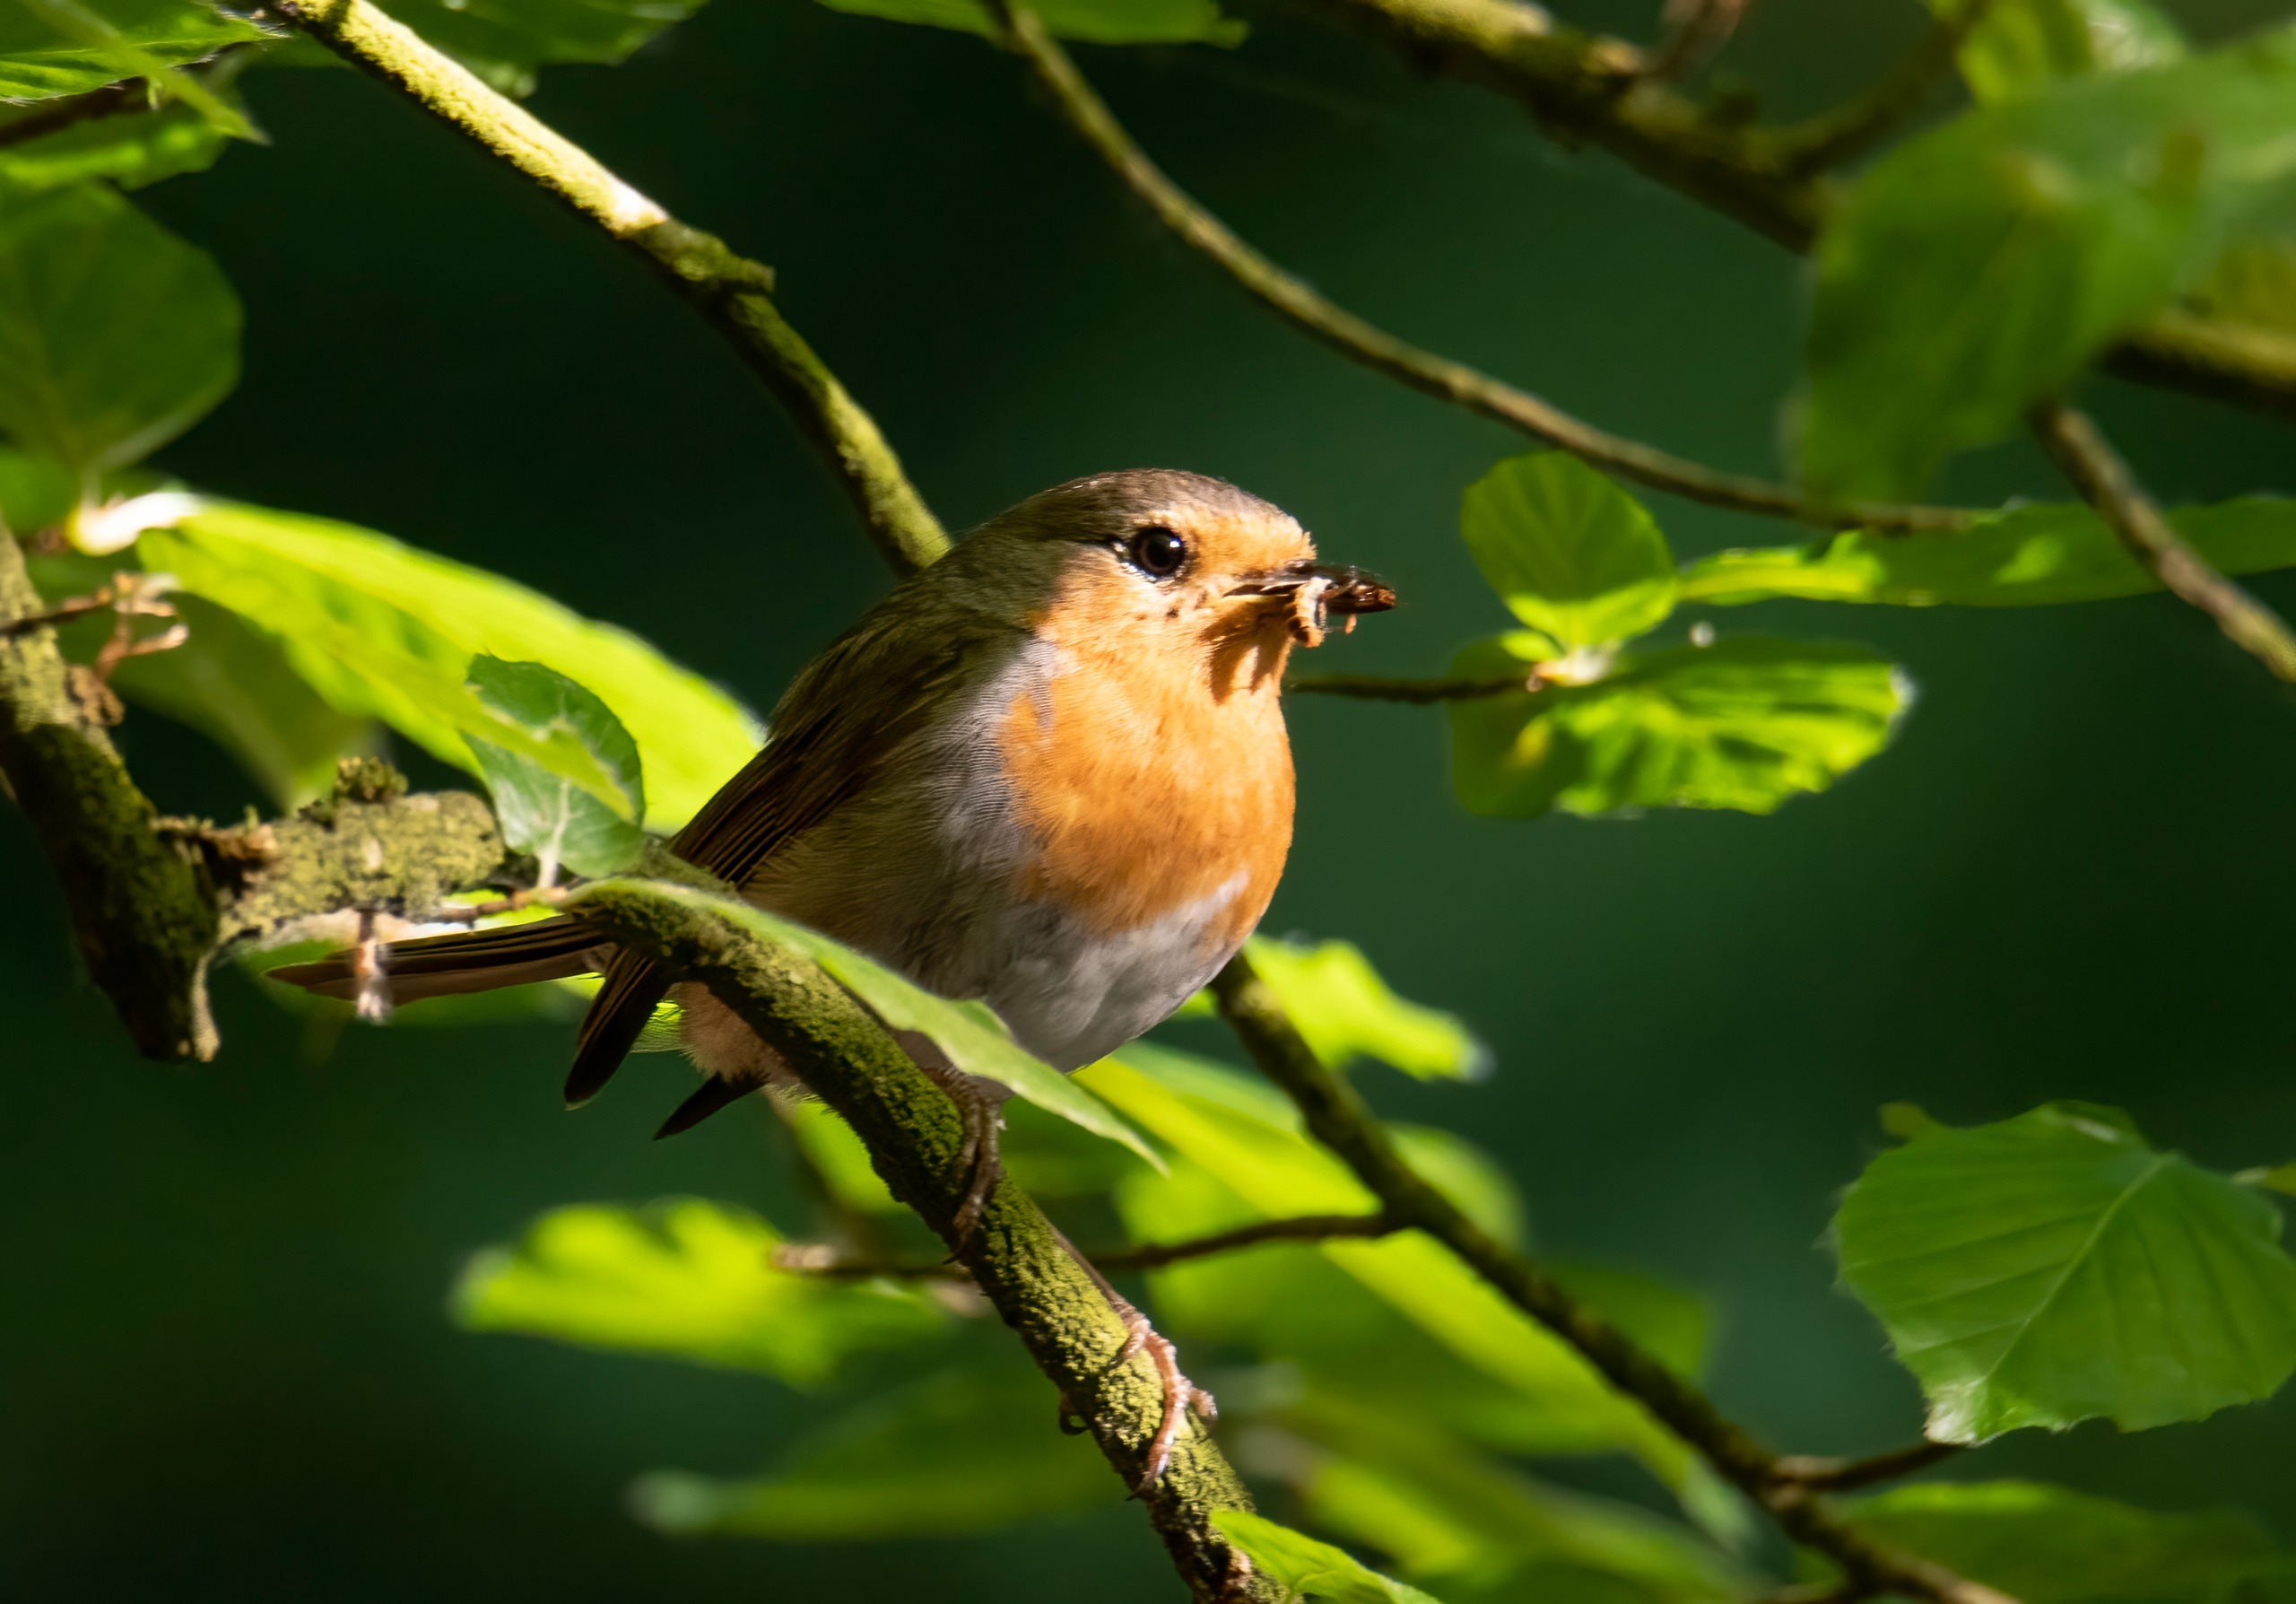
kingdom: Animalia
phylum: Chordata
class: Aves
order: Passeriformes
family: Muscicapidae
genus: Erithacus
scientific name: Erithacus rubecula
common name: Rødhals/rødkælk
